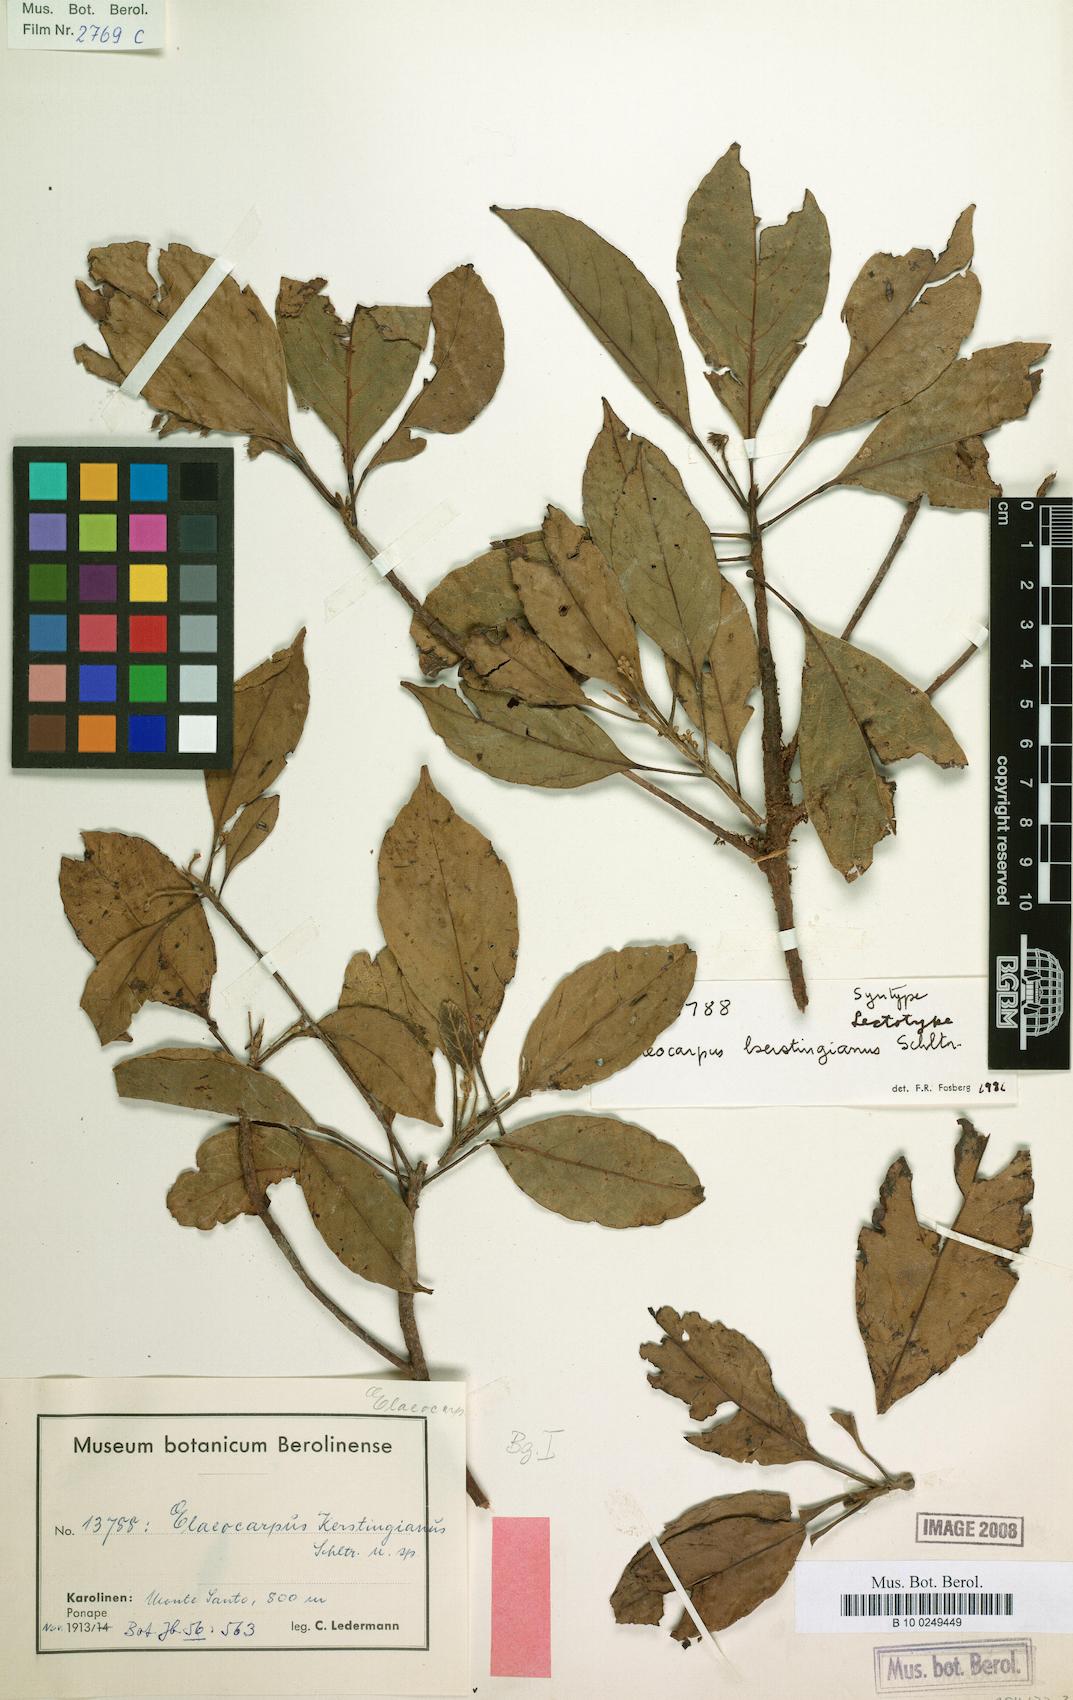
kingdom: Plantae
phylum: Tracheophyta
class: Magnoliopsida
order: Oxalidales
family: Elaeocarpaceae
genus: Elaeocarpus
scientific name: Elaeocarpus kerstingianus
